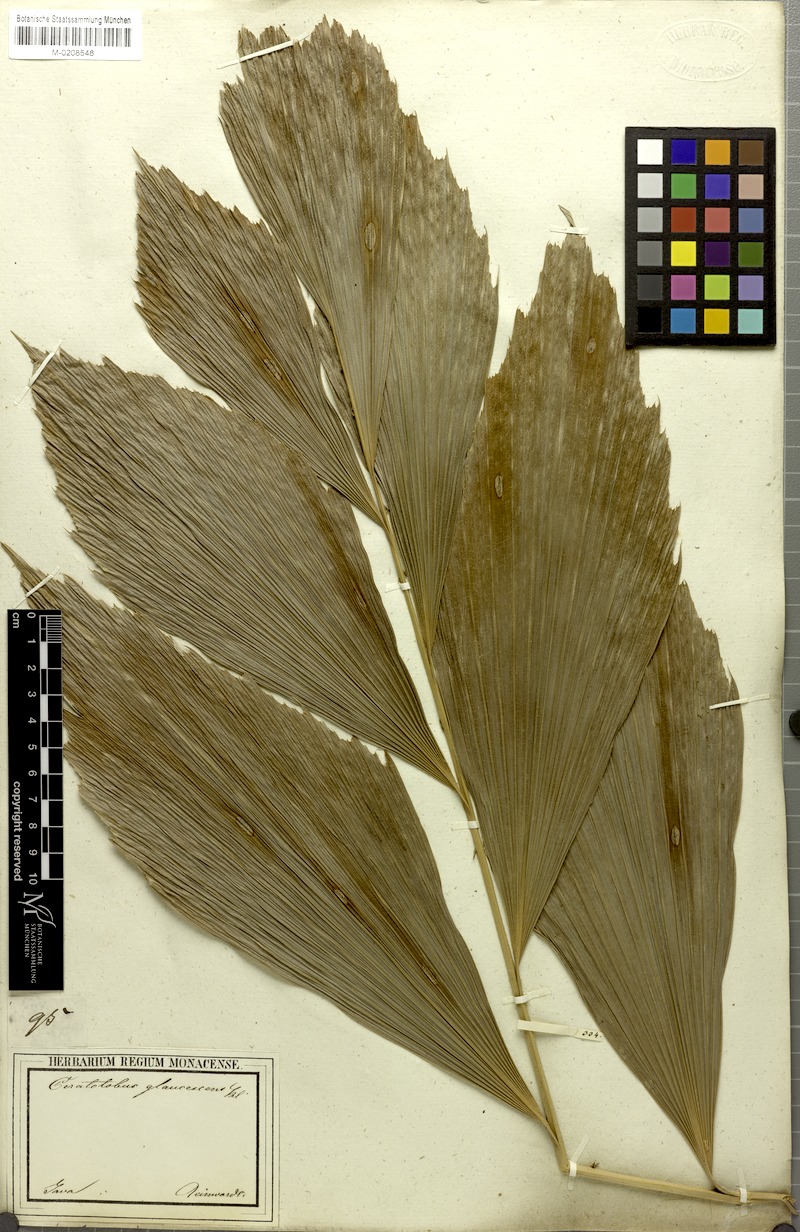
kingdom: Plantae
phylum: Tracheophyta
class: Liliopsida
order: Arecales
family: Arecaceae
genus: Calamus
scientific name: Calamus glaucescens
